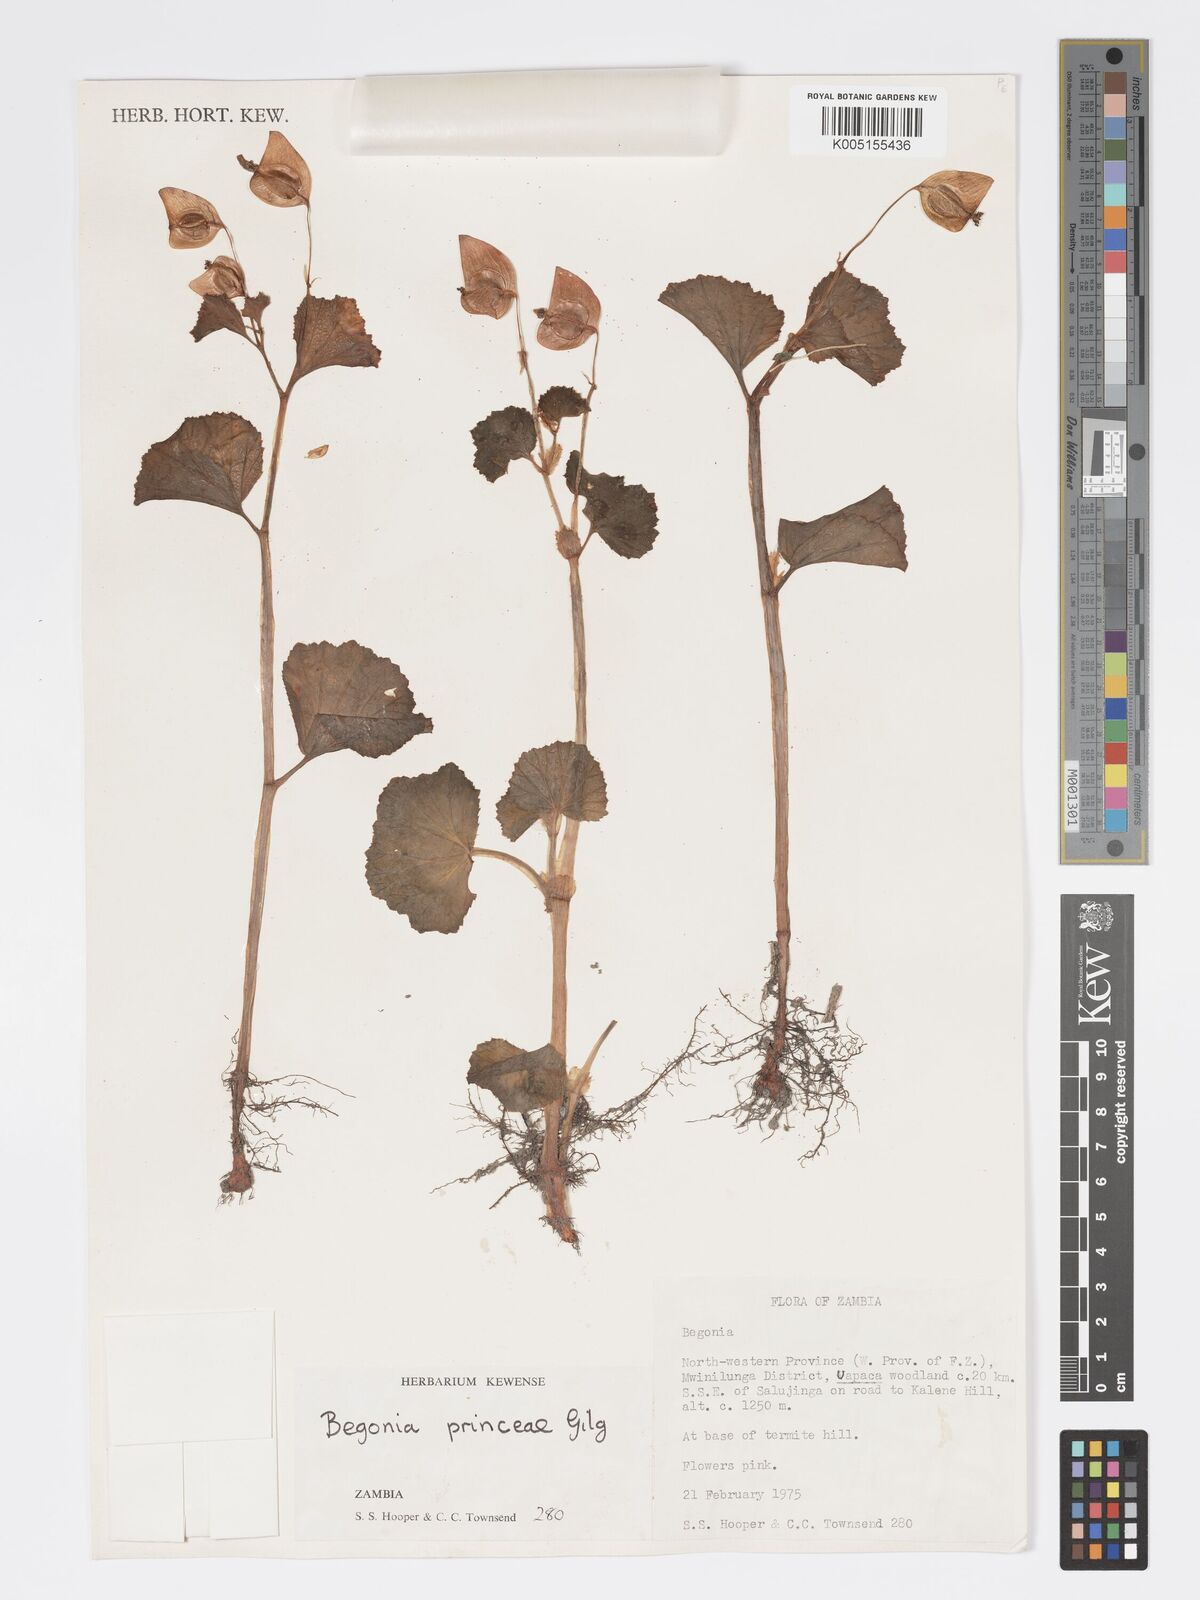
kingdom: Plantae
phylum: Tracheophyta
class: Magnoliopsida
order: Cucurbitales
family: Begoniaceae
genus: Begonia
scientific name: Begonia princeae
